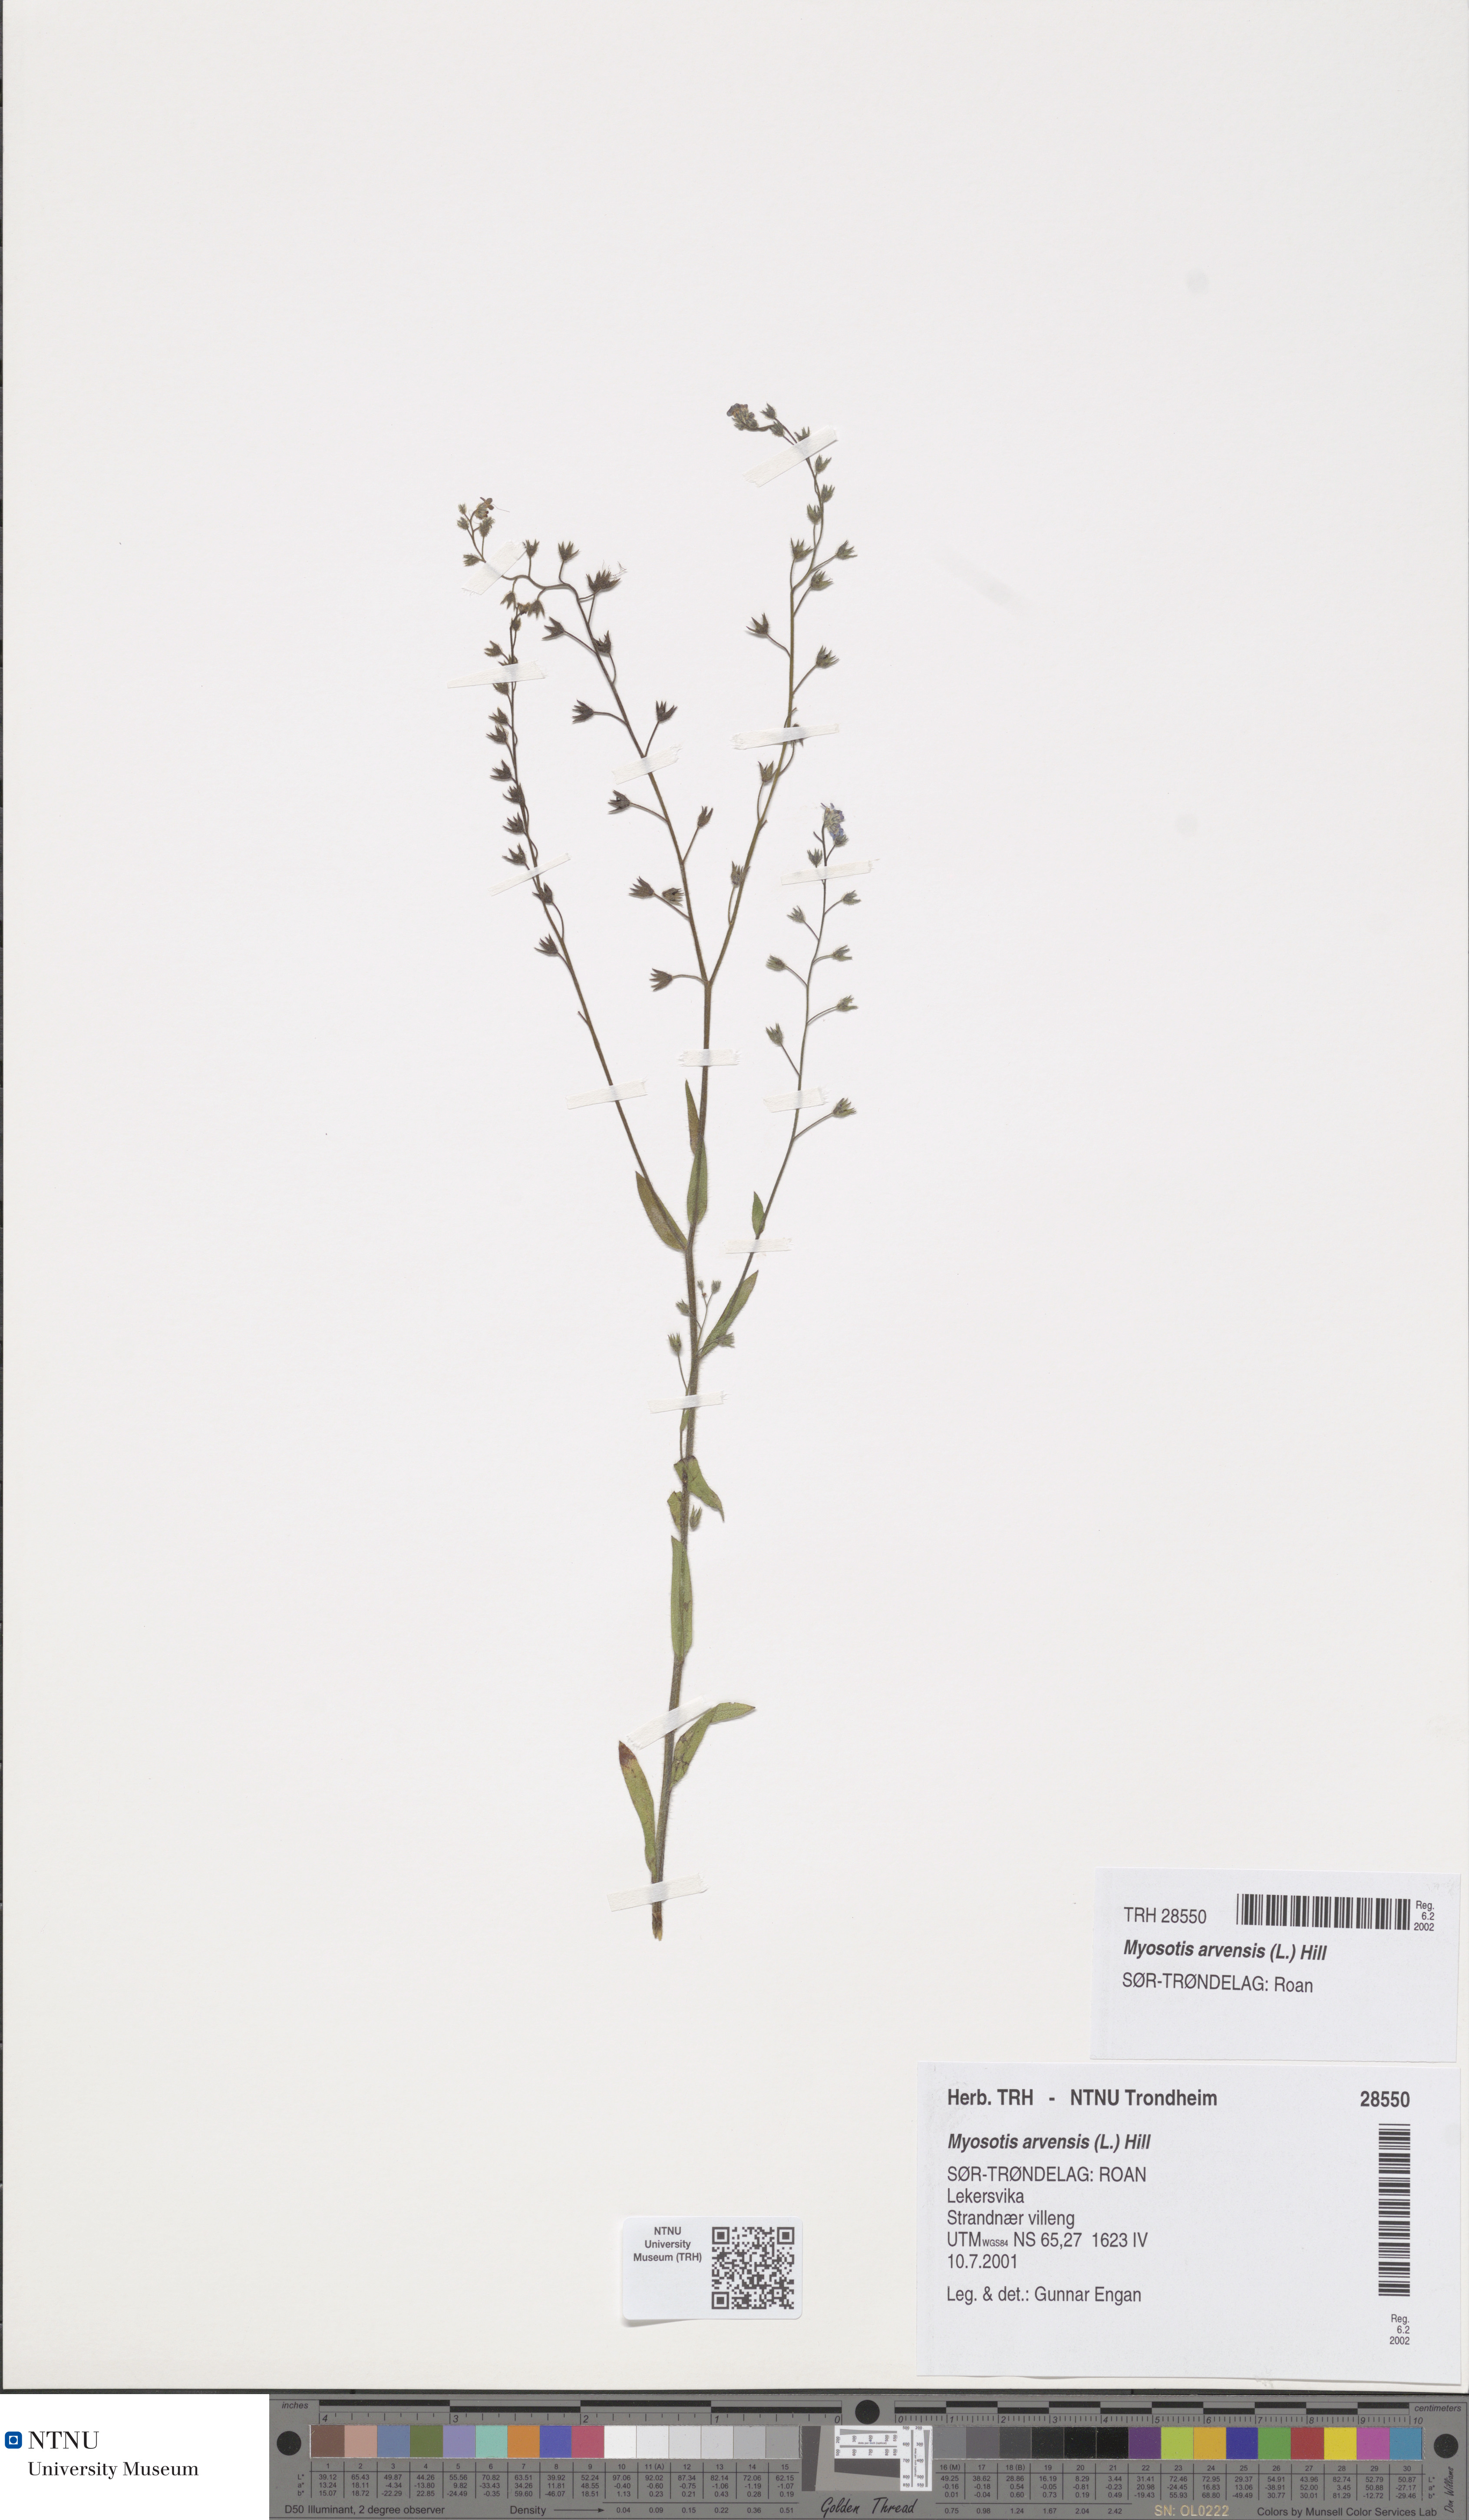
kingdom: Plantae
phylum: Tracheophyta
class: Magnoliopsida
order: Boraginales
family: Boraginaceae
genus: Myosotis
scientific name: Myosotis arvensis
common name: Field forget-me-not
